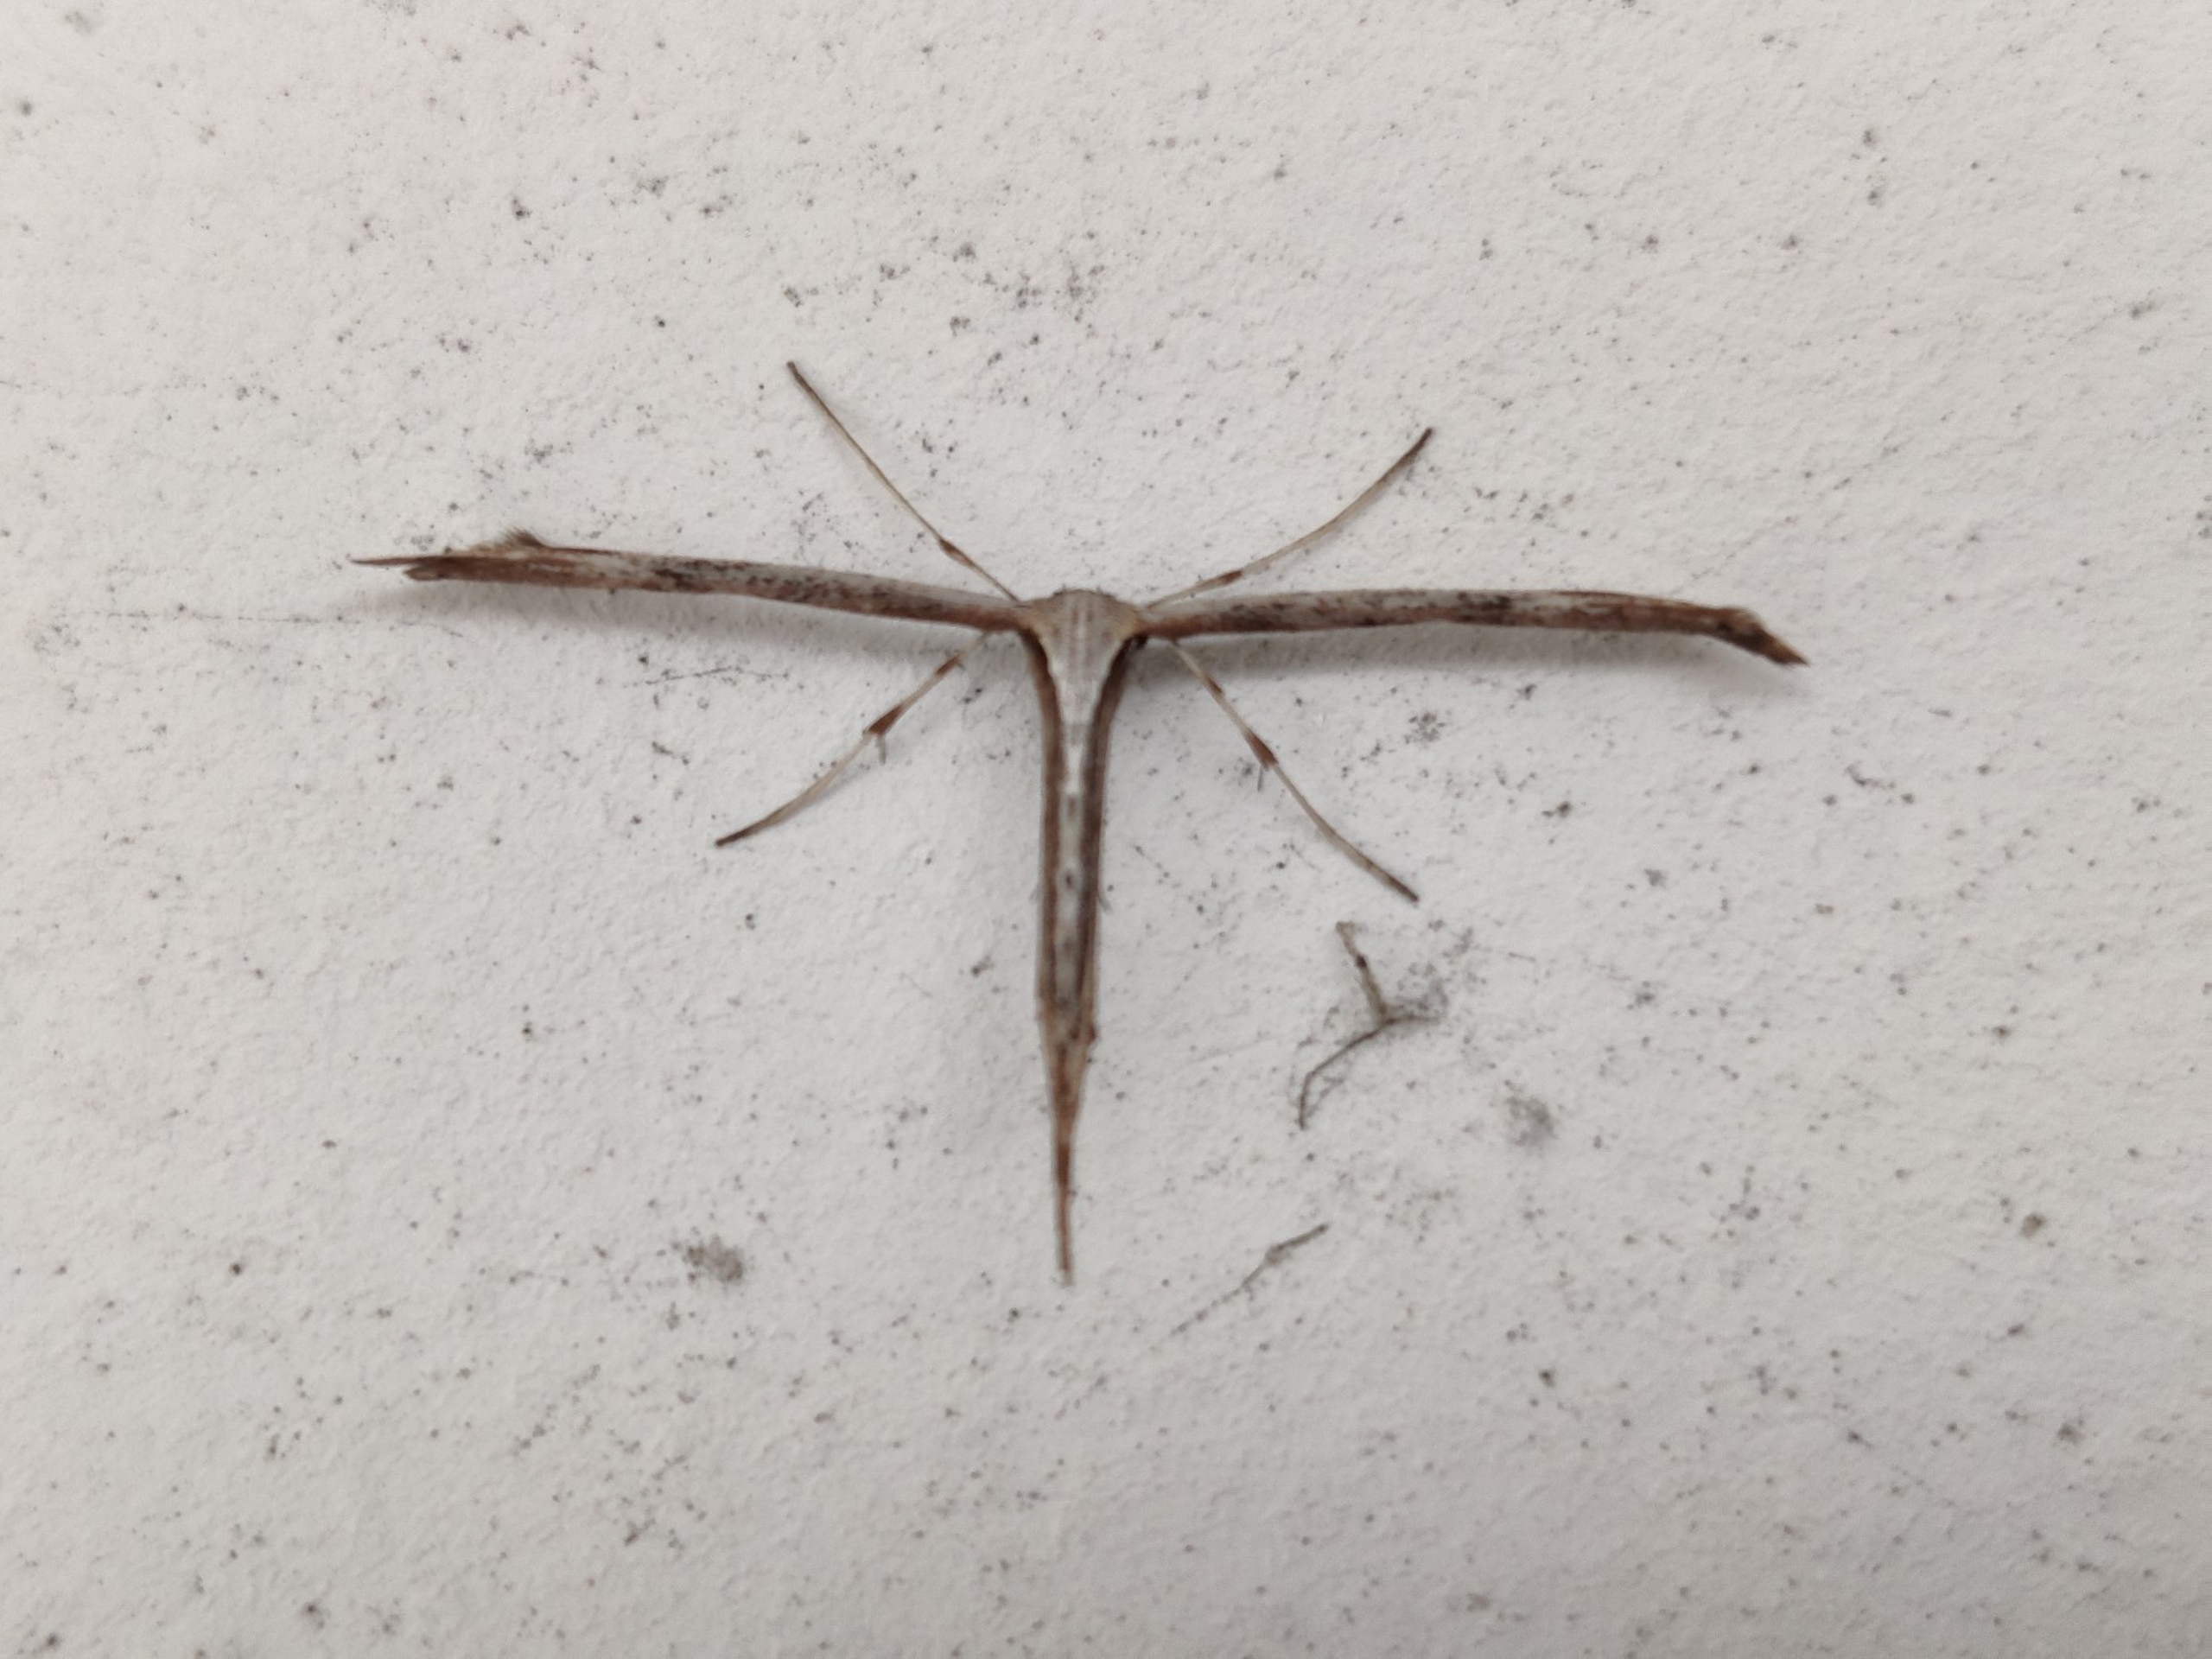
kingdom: Animalia
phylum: Arthropoda
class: Insecta
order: Lepidoptera
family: Pterophoridae
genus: Emmelina
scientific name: Emmelina monodactyla
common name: Snerlefjermøl
